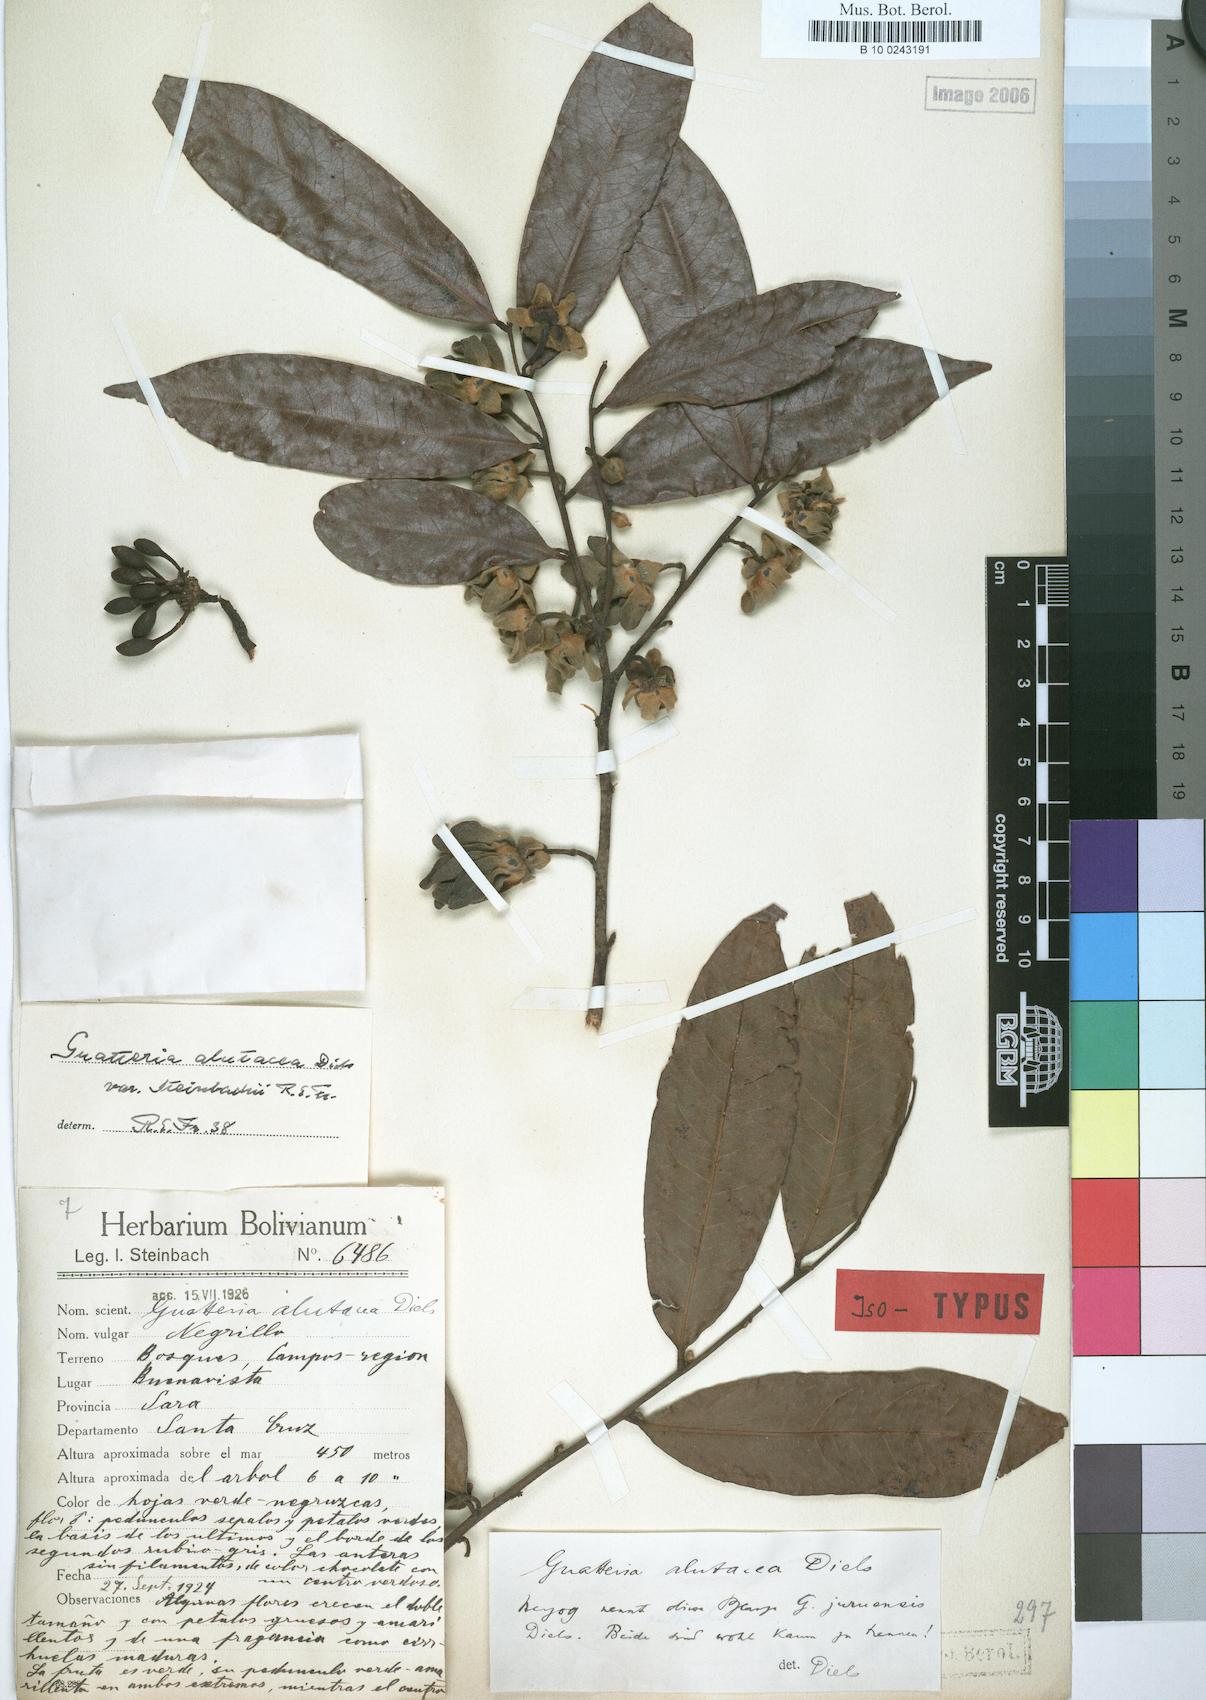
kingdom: Plantae
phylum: Tracheophyta
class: Magnoliopsida
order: Magnoliales
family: Annonaceae
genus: Guatteria
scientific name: Guatteria alutacea
